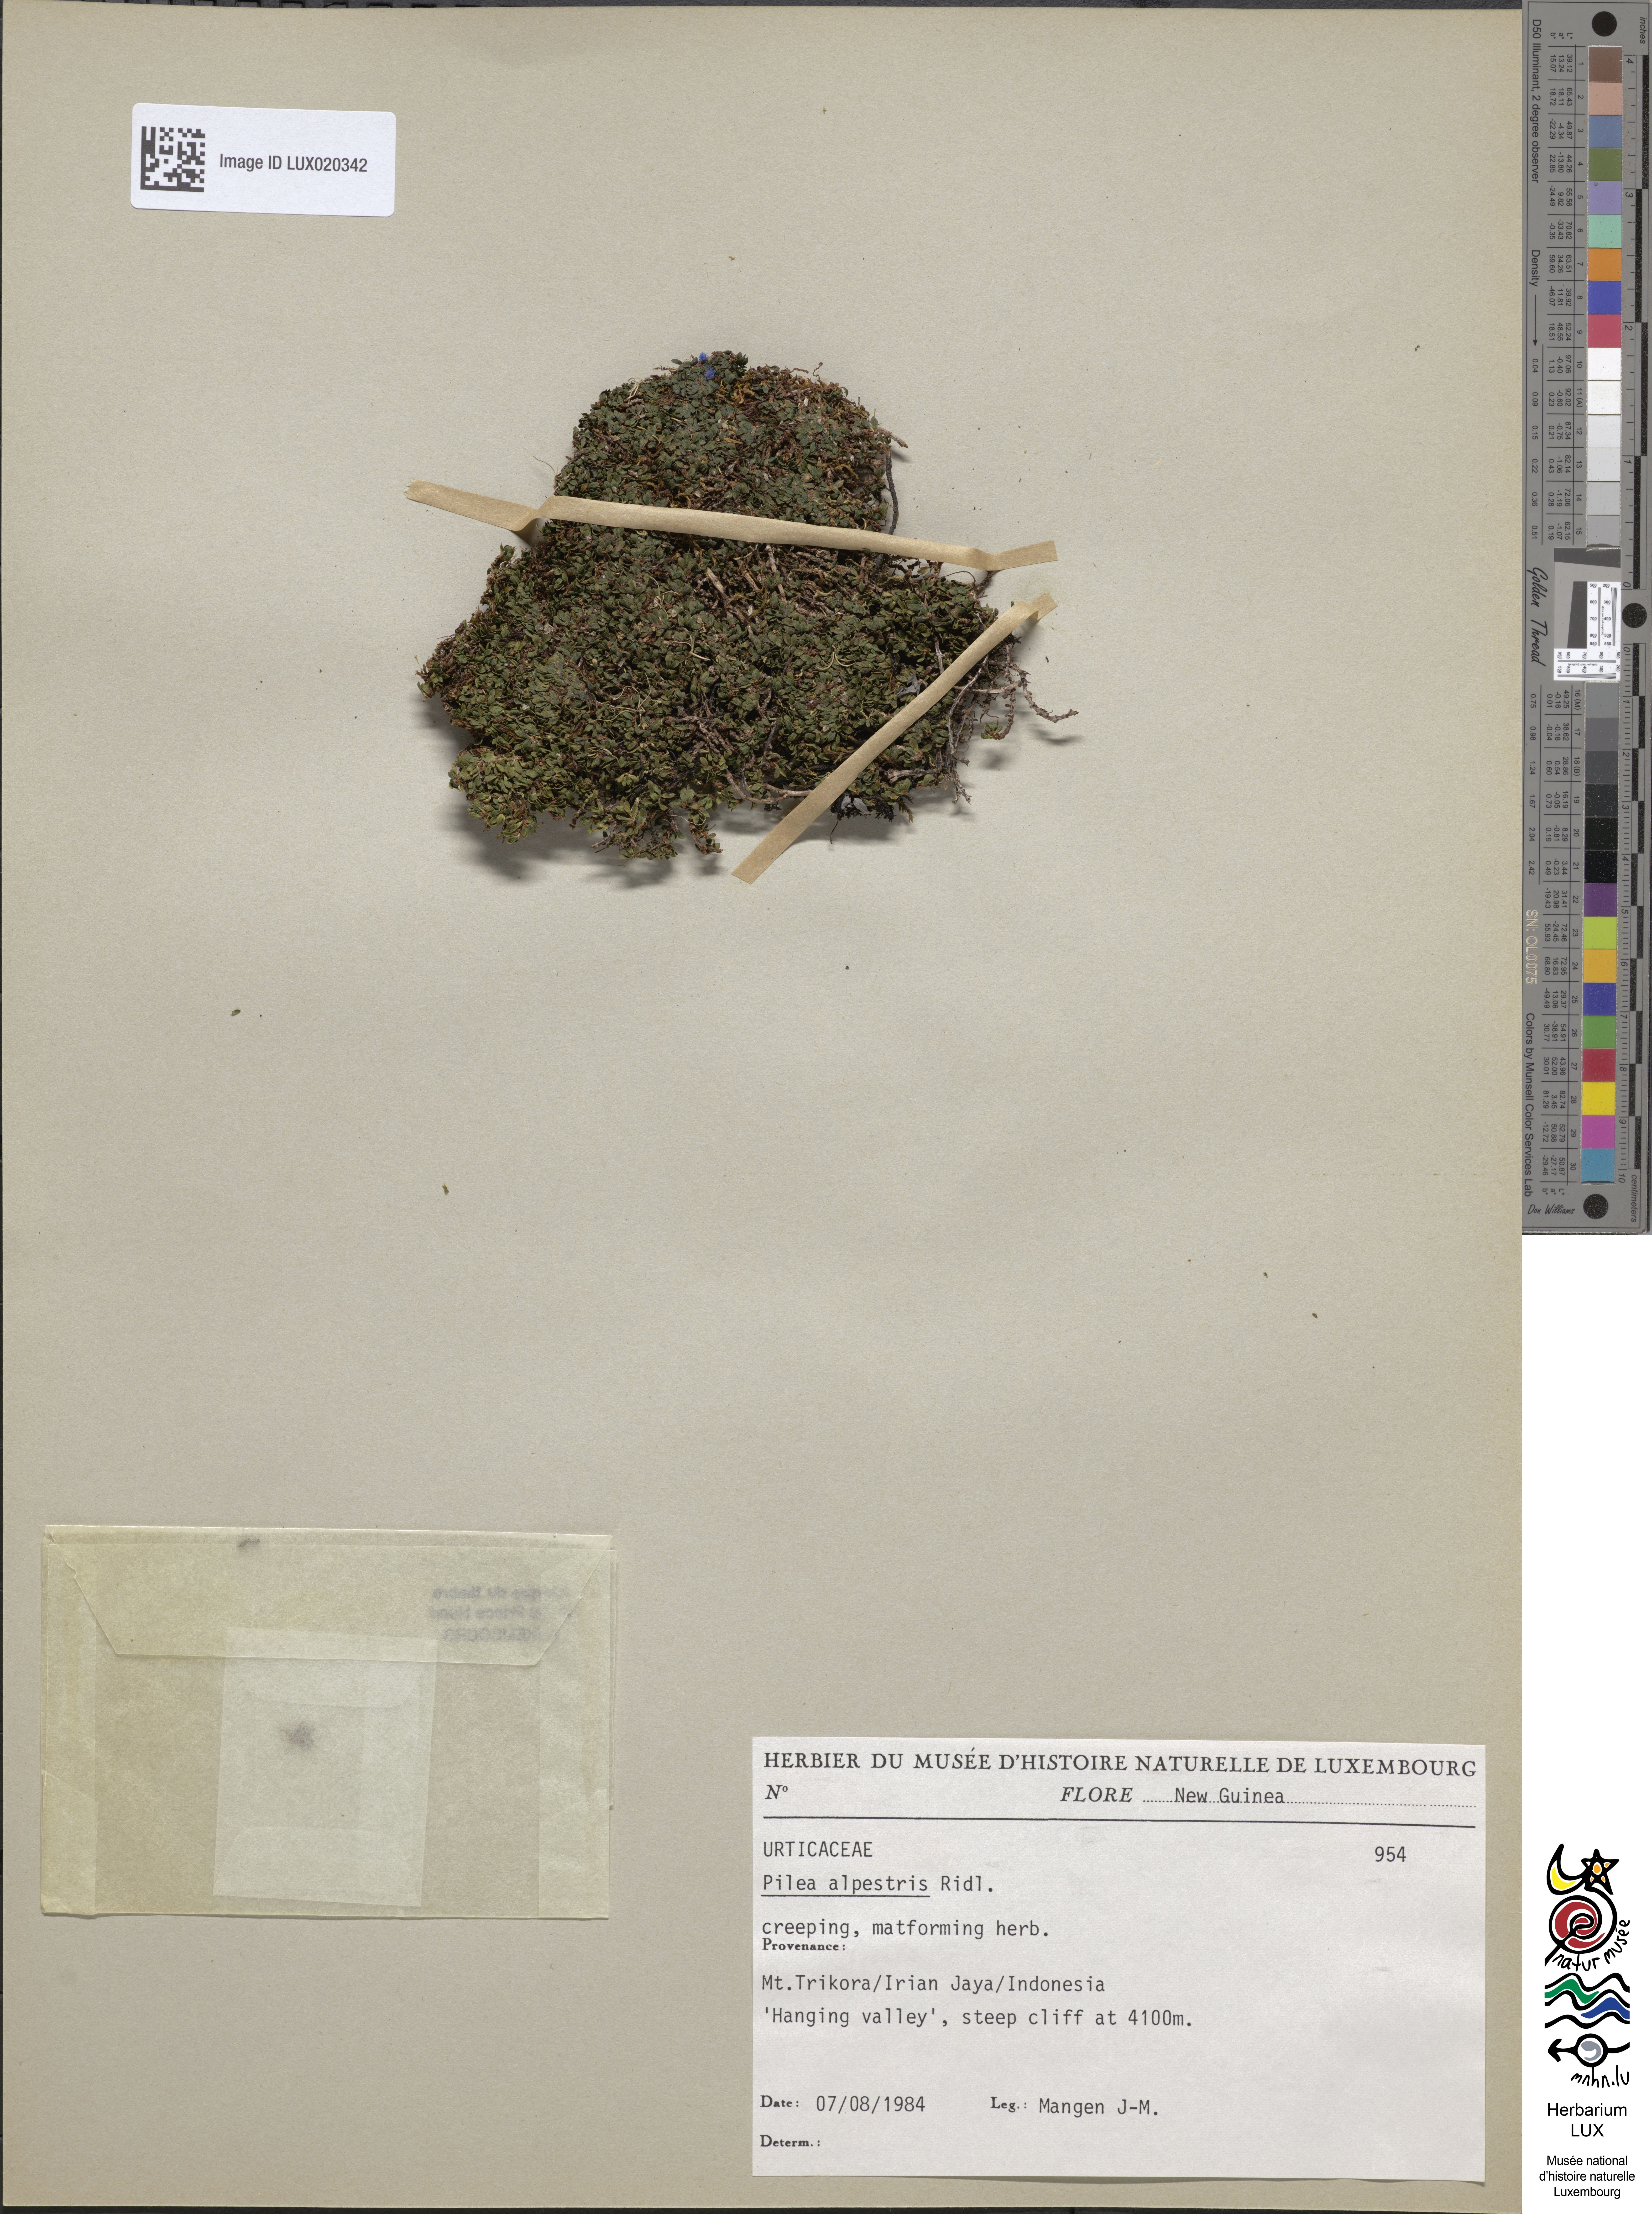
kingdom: Plantae
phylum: Tracheophyta
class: Magnoliopsida
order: Rosales
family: Urticaceae
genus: Pilea
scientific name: Pilea lapestris
